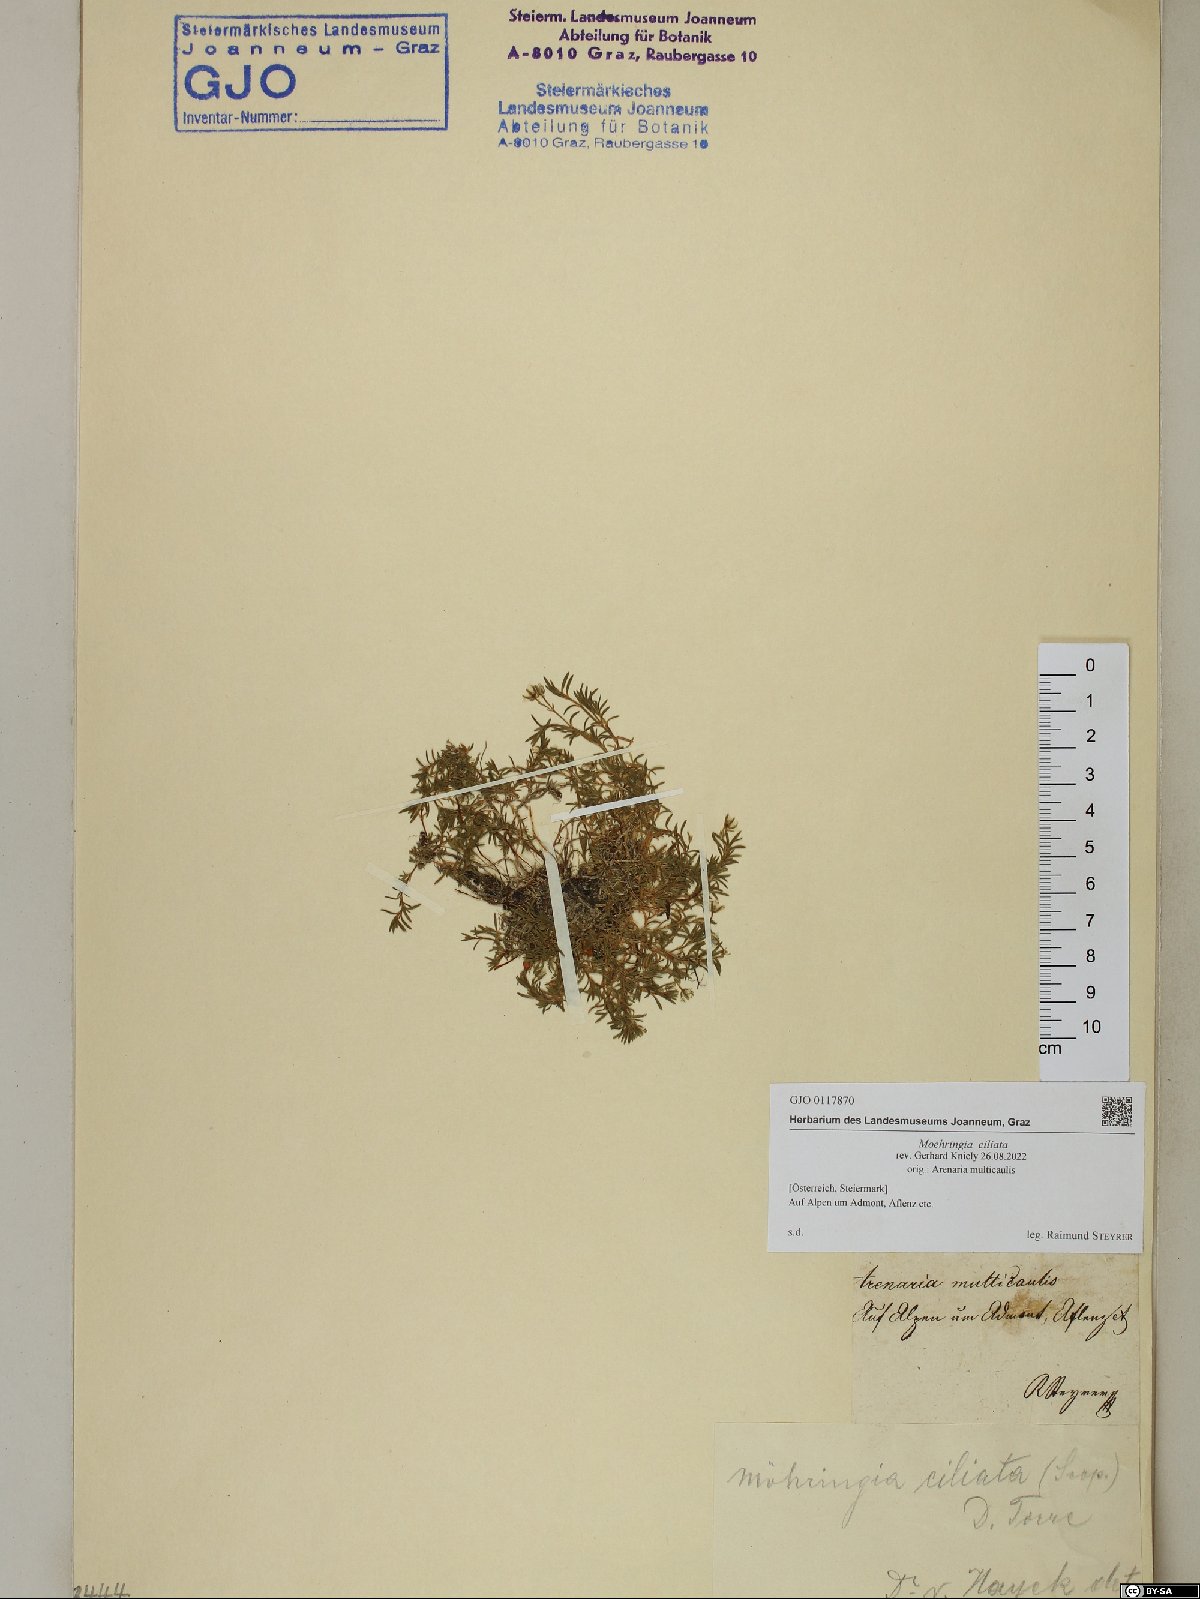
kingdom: Plantae
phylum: Tracheophyta
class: Magnoliopsida
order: Caryophyllales
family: Caryophyllaceae
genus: Moehringia
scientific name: Moehringia ciliata
